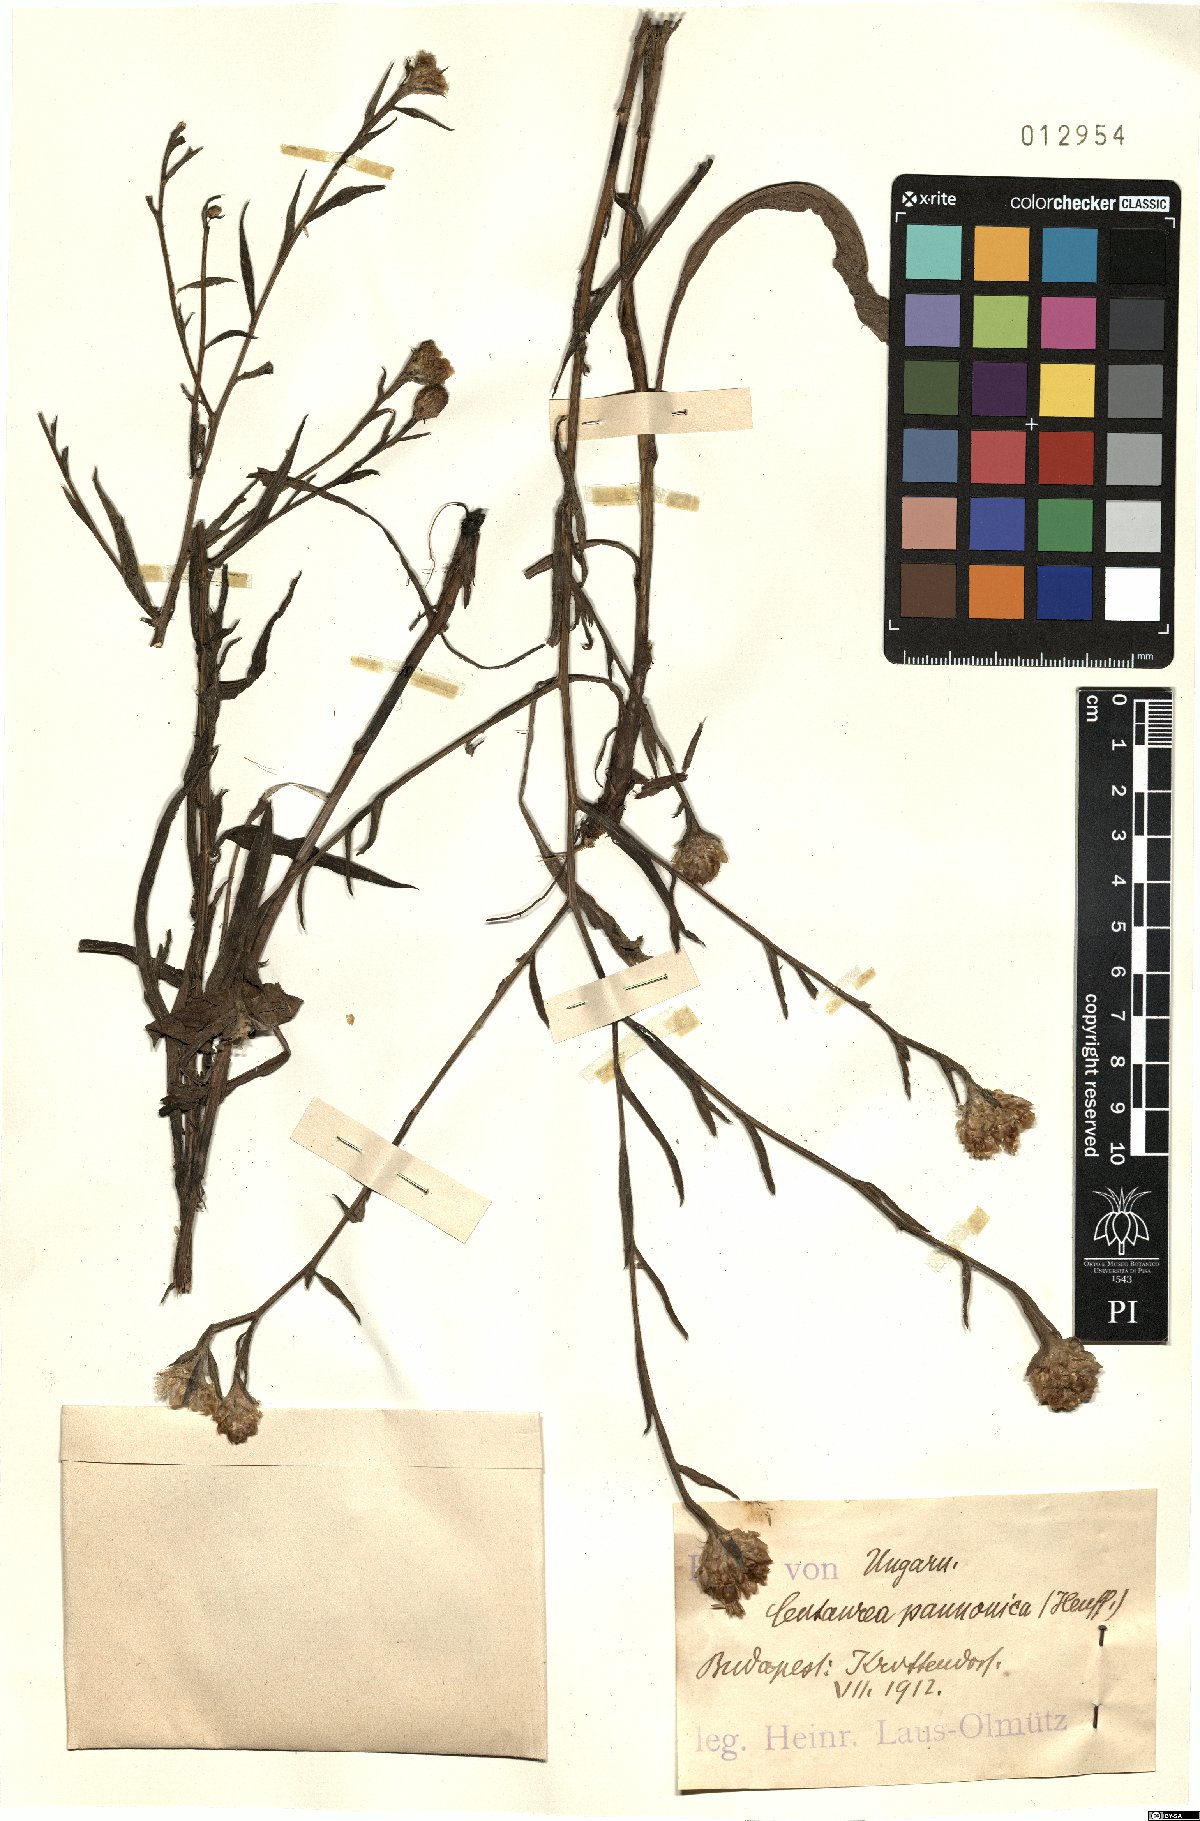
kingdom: Plantae
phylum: Tracheophyta
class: Magnoliopsida
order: Asterales
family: Asteraceae
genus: Centaurea
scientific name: Centaurea pannonica
